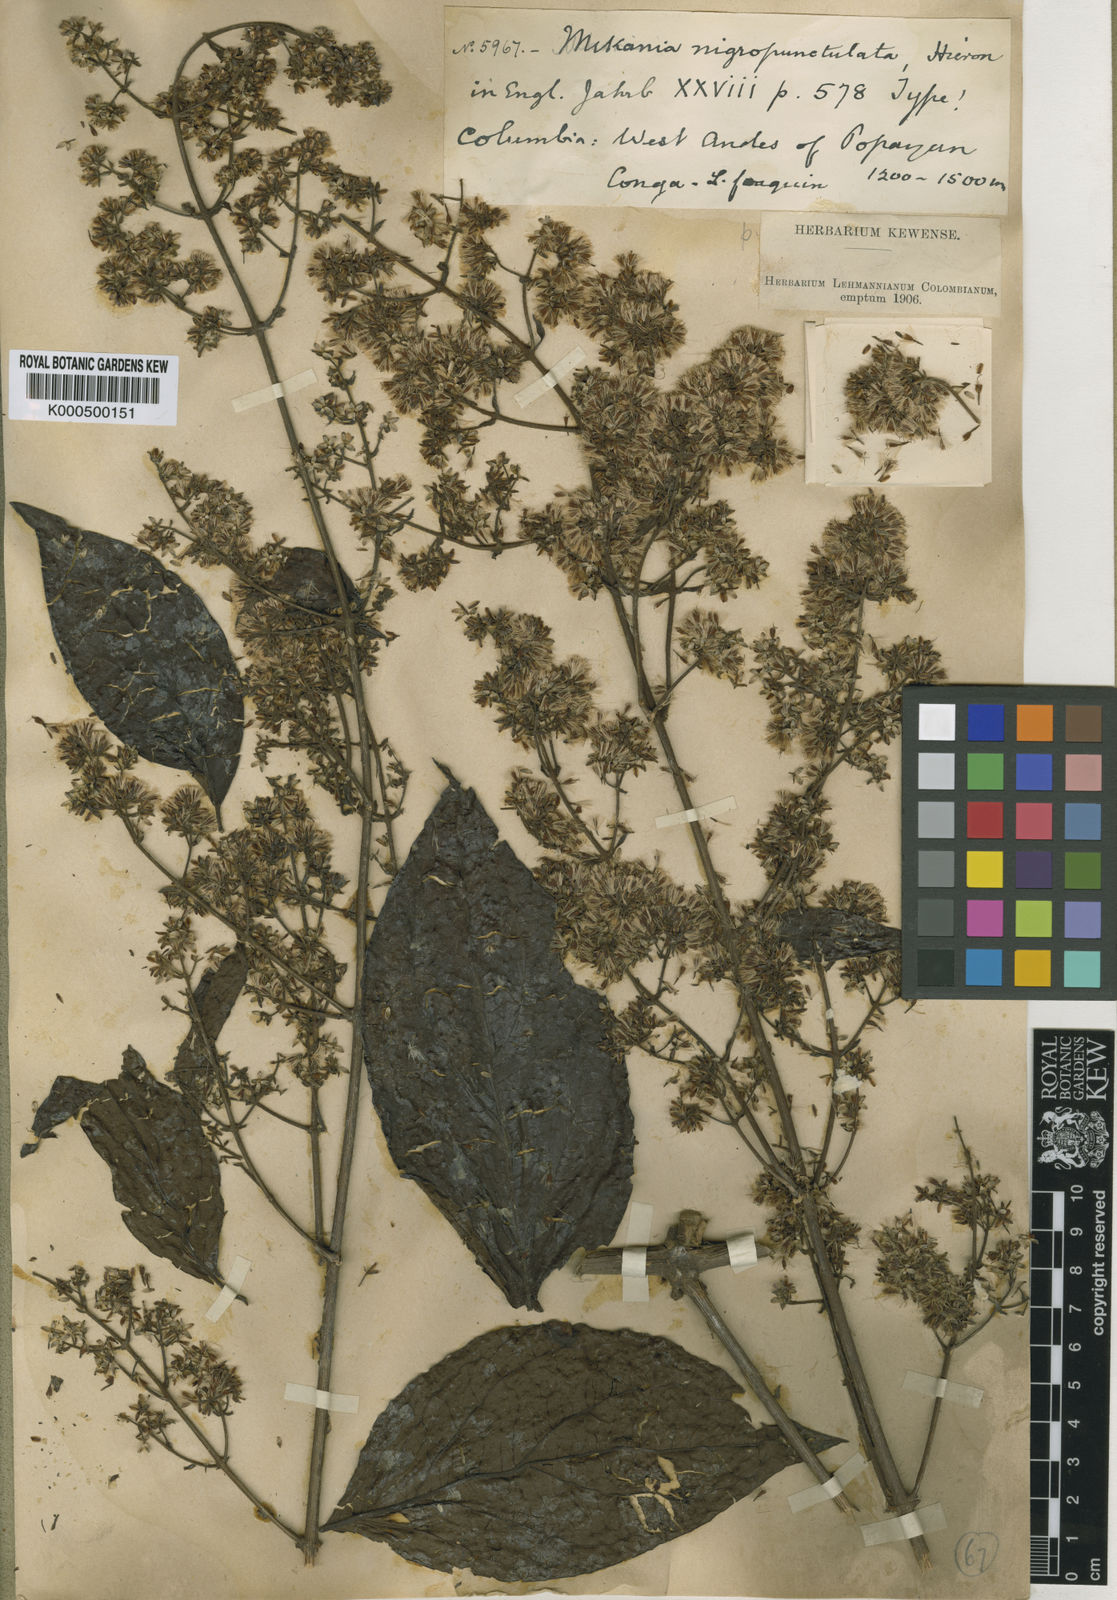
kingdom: Plantae
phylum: Tracheophyta
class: Magnoliopsida
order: Asterales
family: Asteraceae
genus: Mikania
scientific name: Mikania nemorosa
